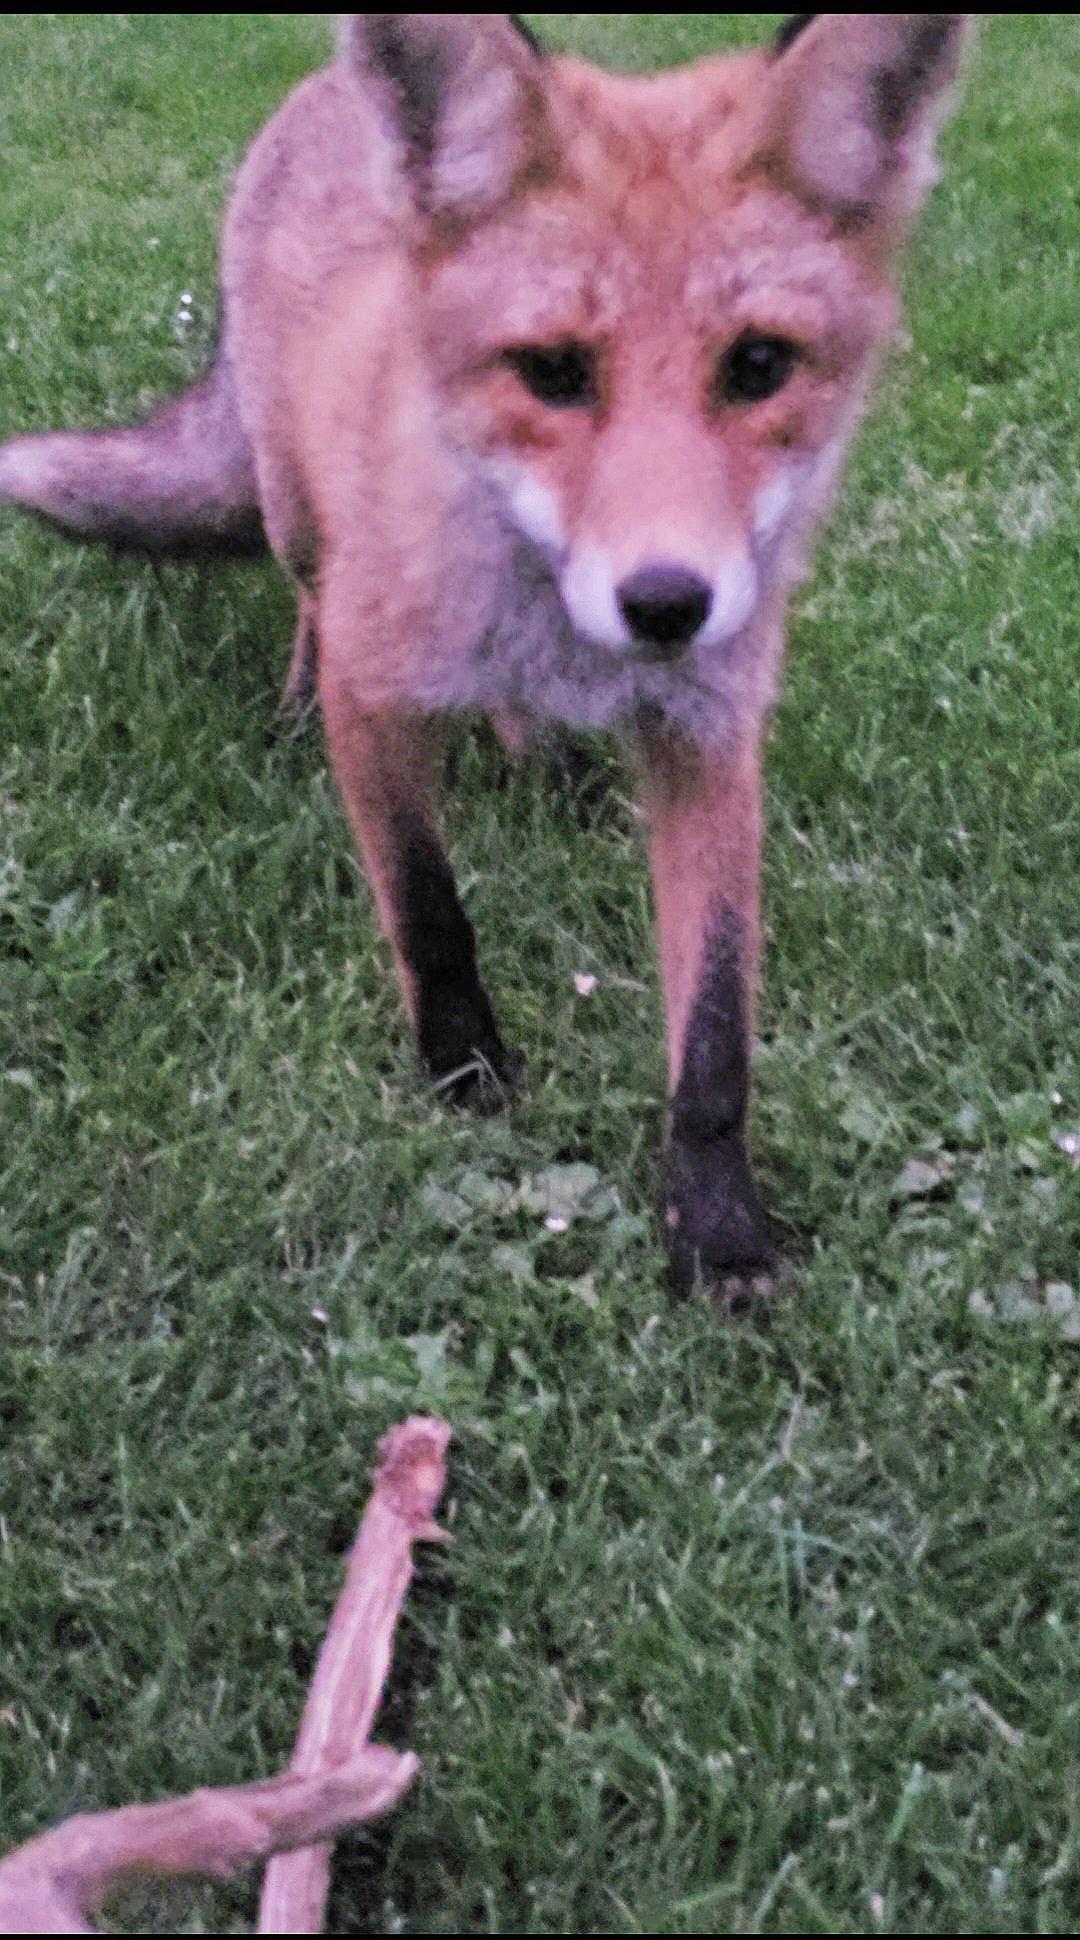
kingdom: Animalia
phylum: Chordata
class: Mammalia
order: Carnivora
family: Canidae
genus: Vulpes
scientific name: Vulpes vulpes
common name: Ræv
